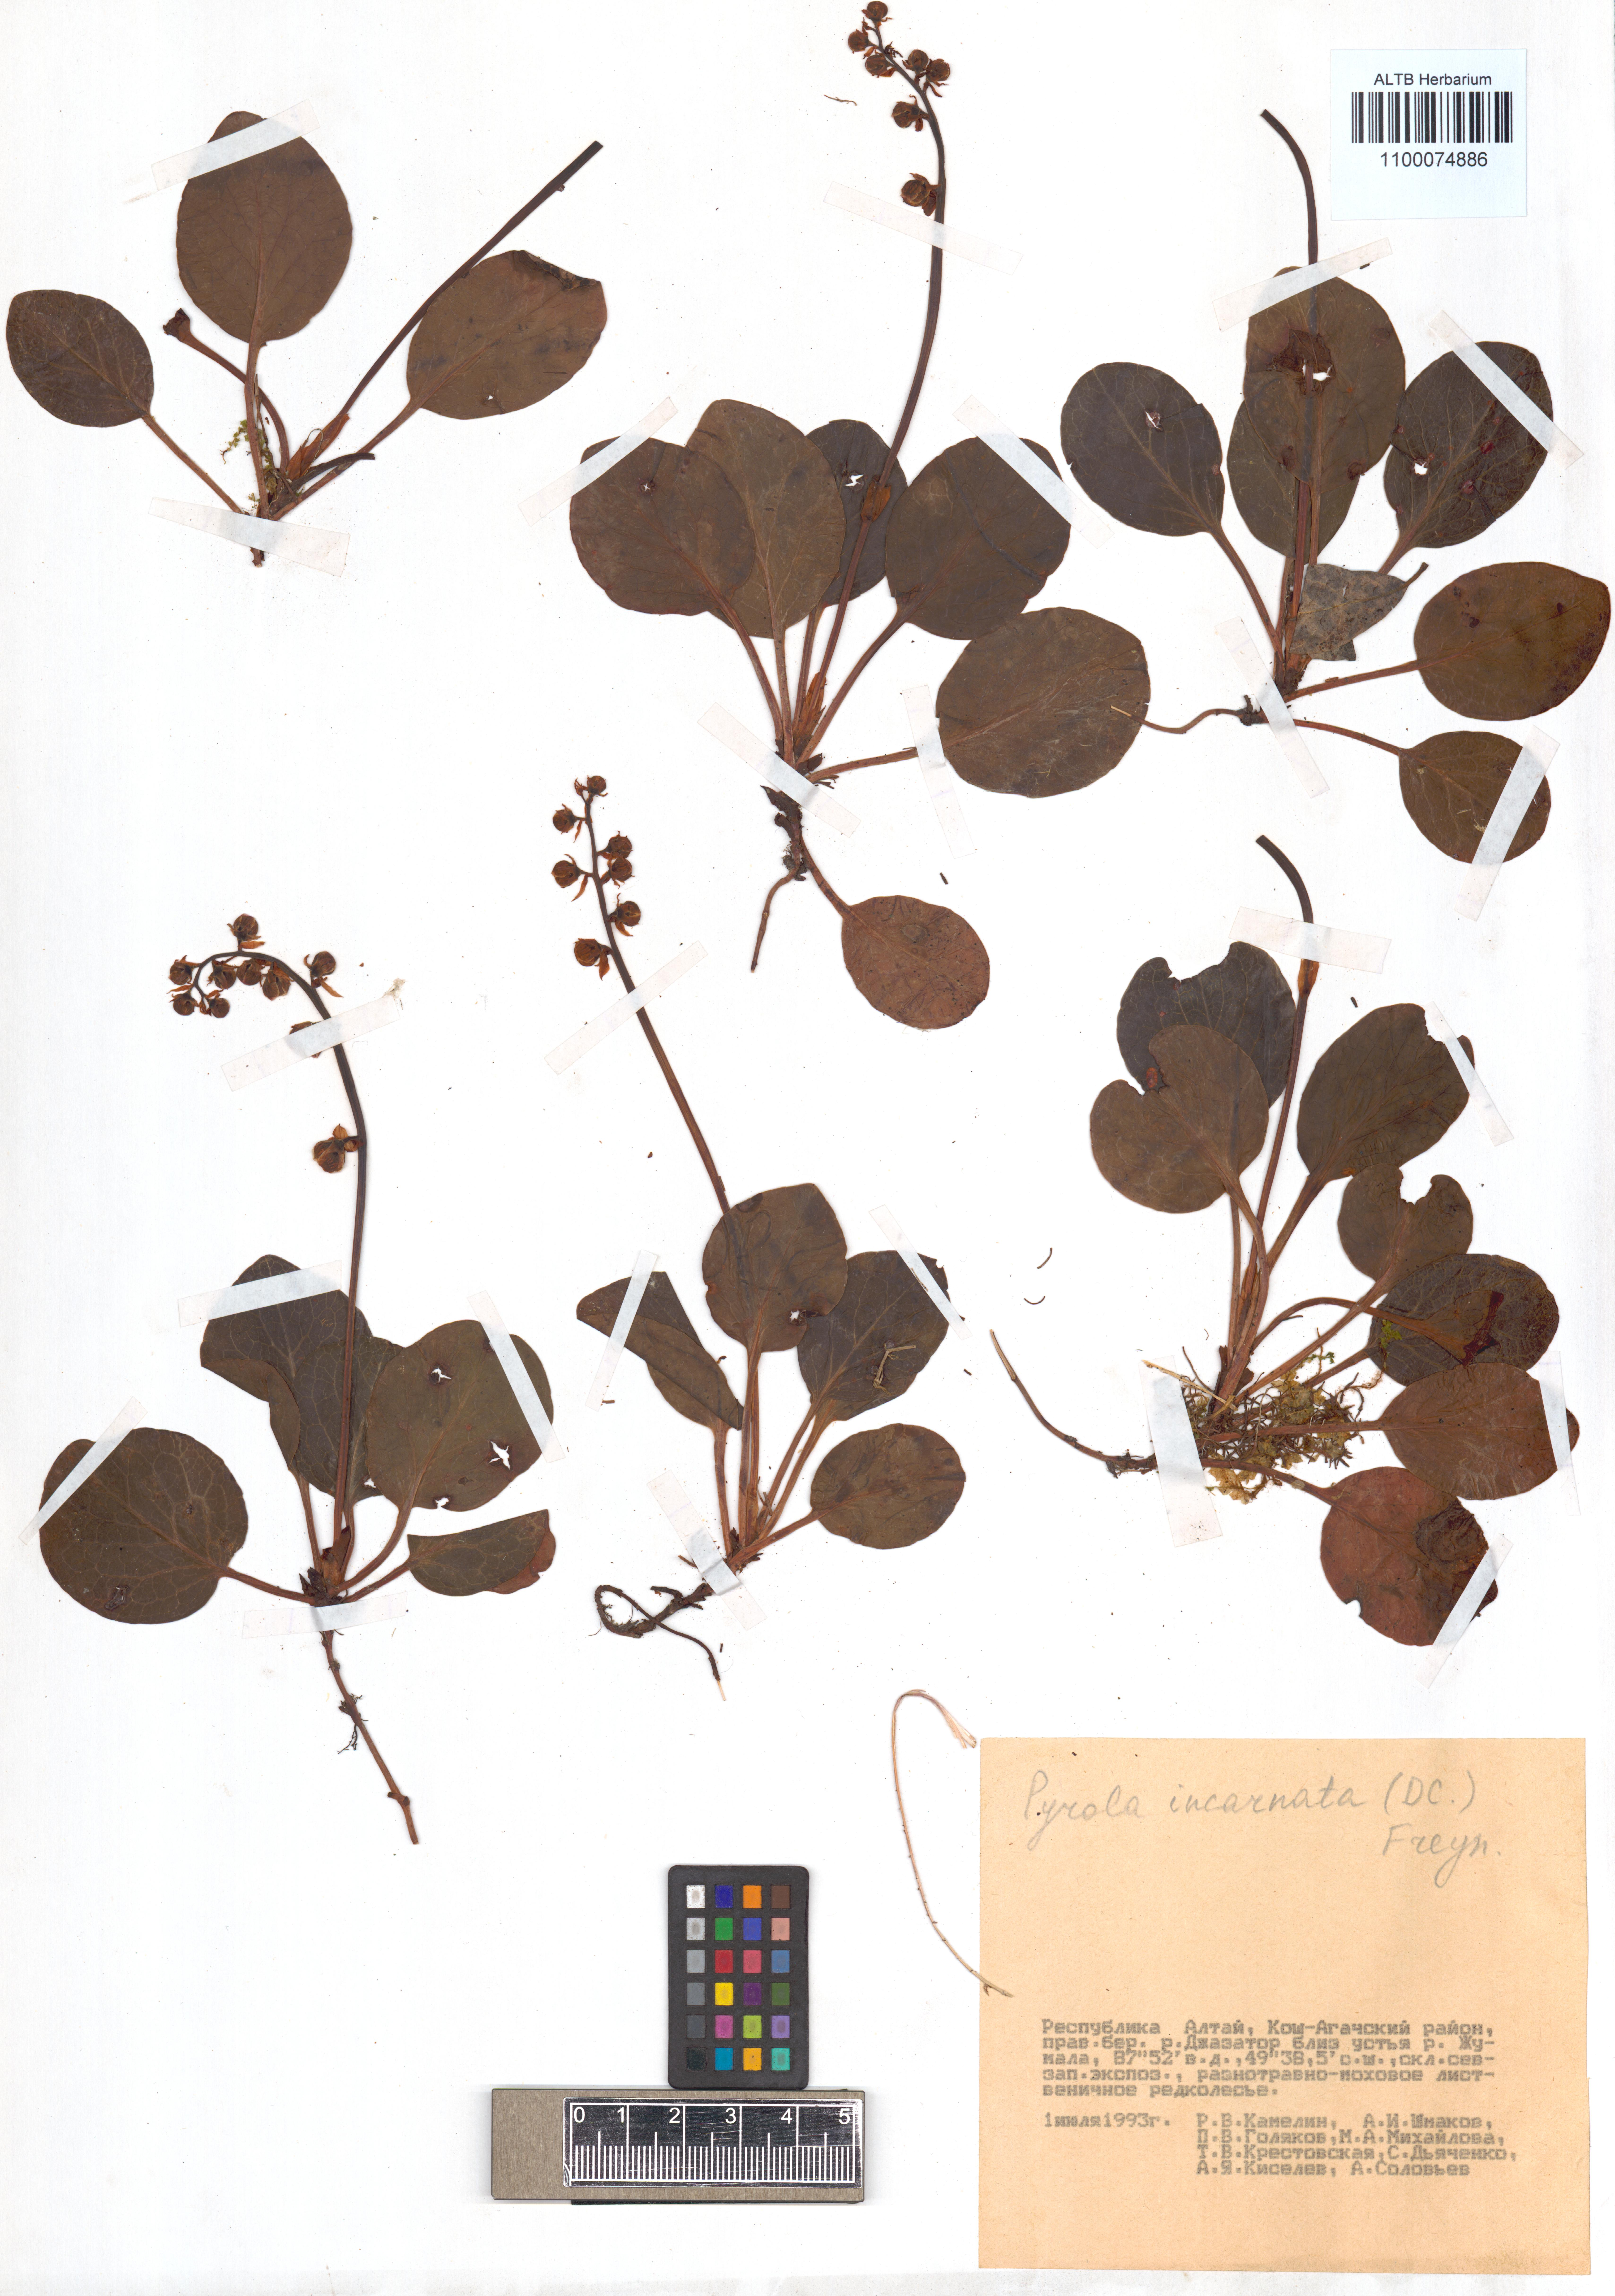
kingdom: Plantae
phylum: Tracheophyta
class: Magnoliopsida
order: Ericales
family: Ericaceae
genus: Pyrola
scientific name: Pyrola asarifolia
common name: Bog wintergreen
